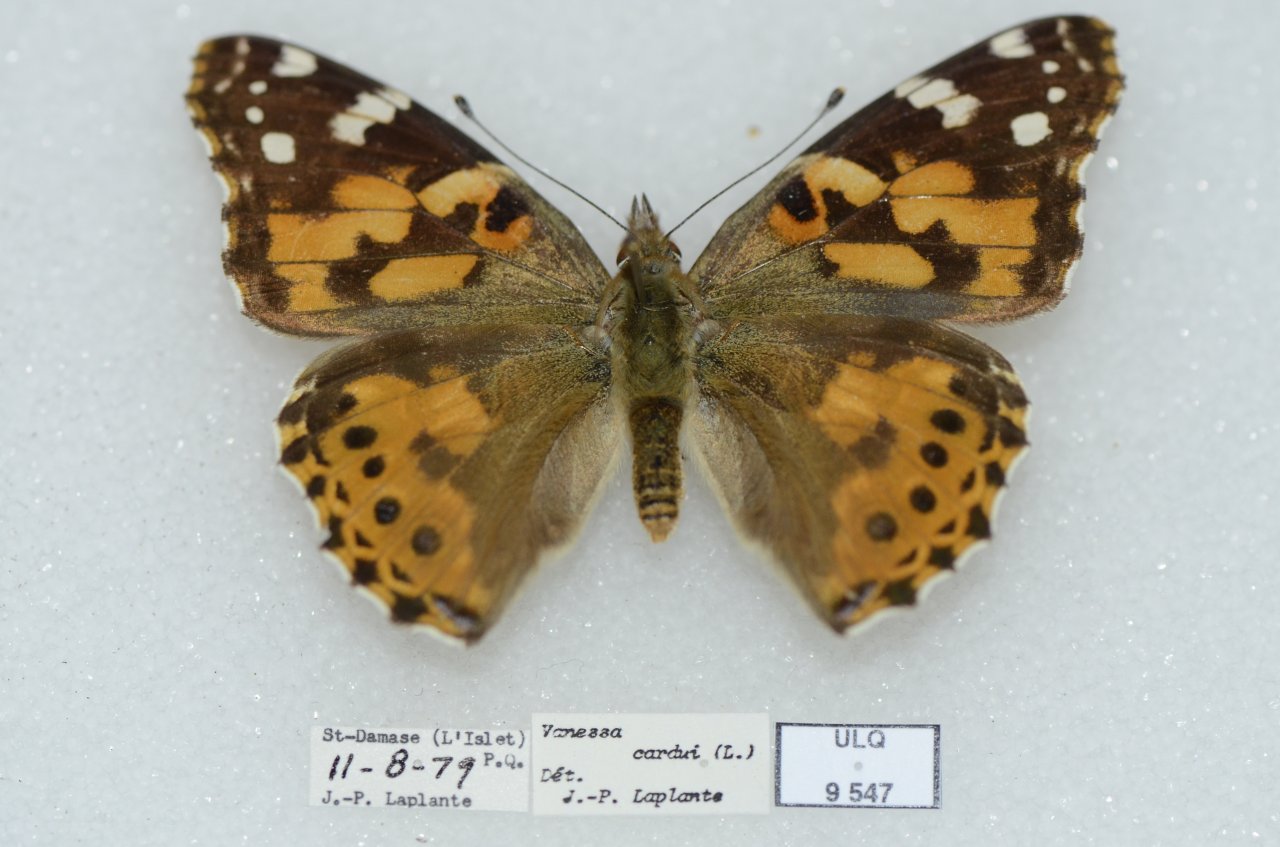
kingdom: Animalia
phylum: Arthropoda
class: Insecta
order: Lepidoptera
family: Nymphalidae
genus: Vanessa
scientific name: Vanessa cardui
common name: Painted Lady
